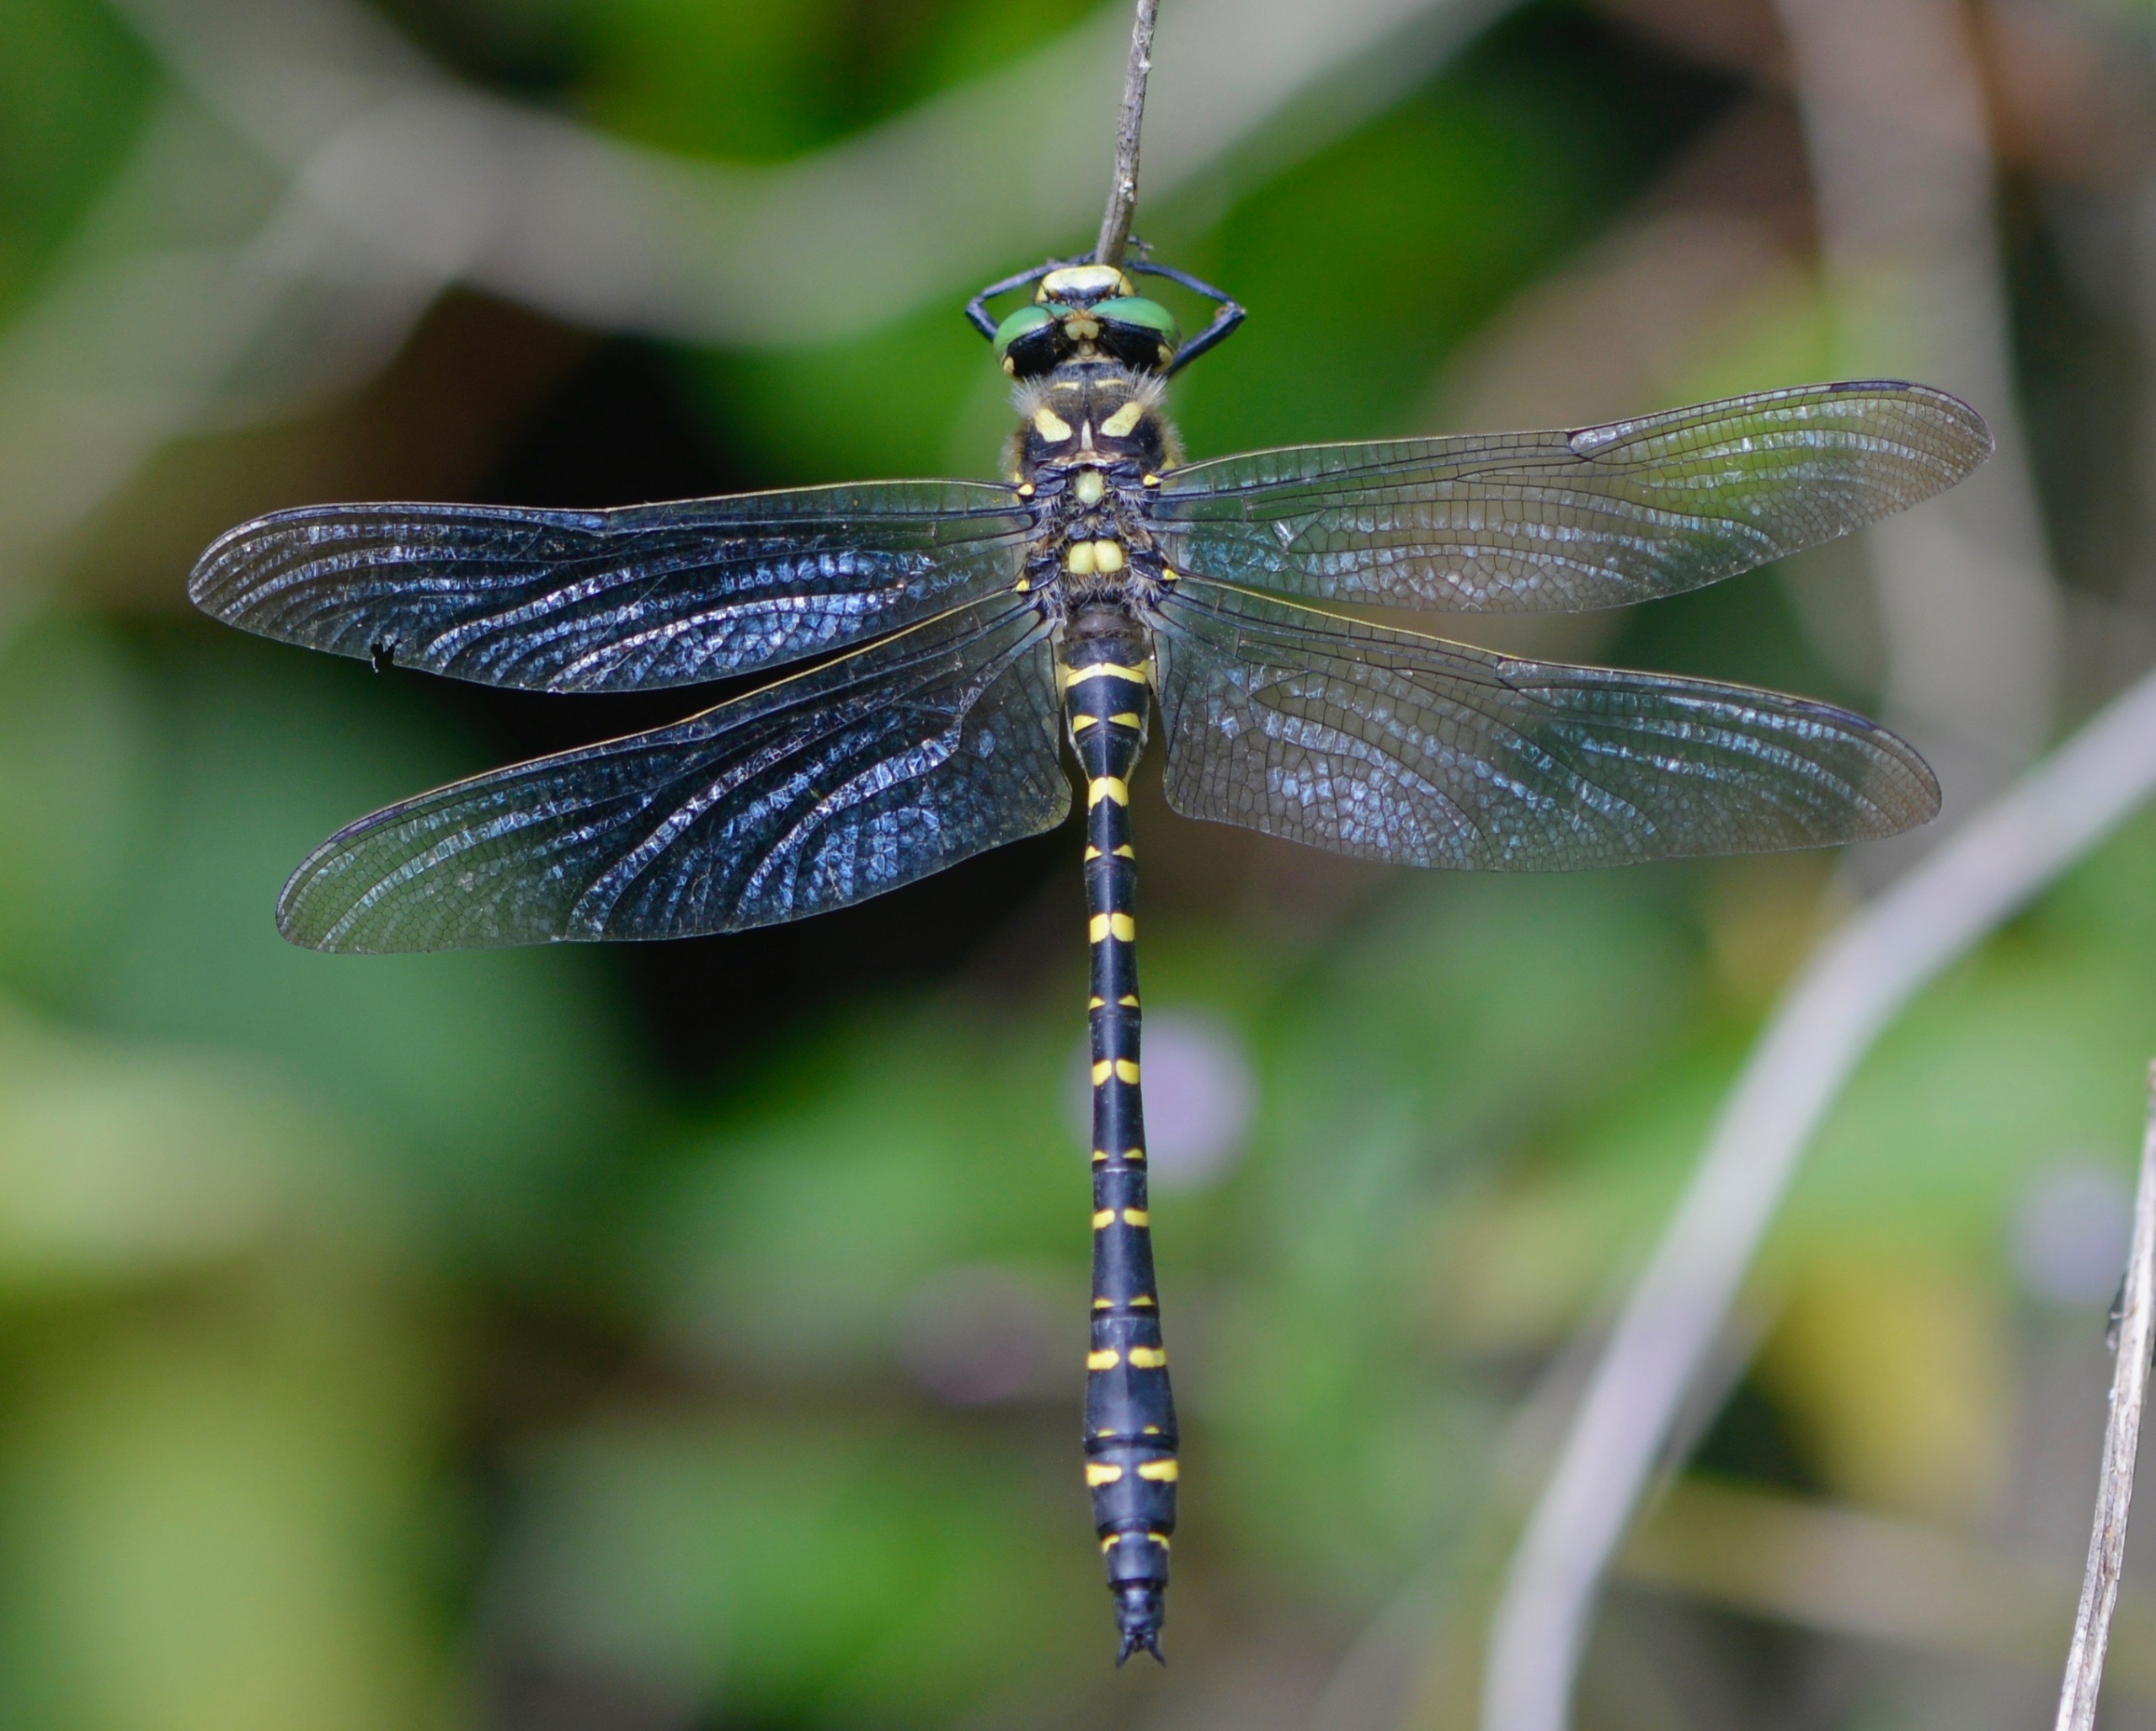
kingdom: Animalia
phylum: Arthropoda
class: Insecta
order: Odonata
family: Cordulegastridae
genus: Cordulegaster
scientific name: Cordulegaster boltonii
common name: Kongeguldsmed
